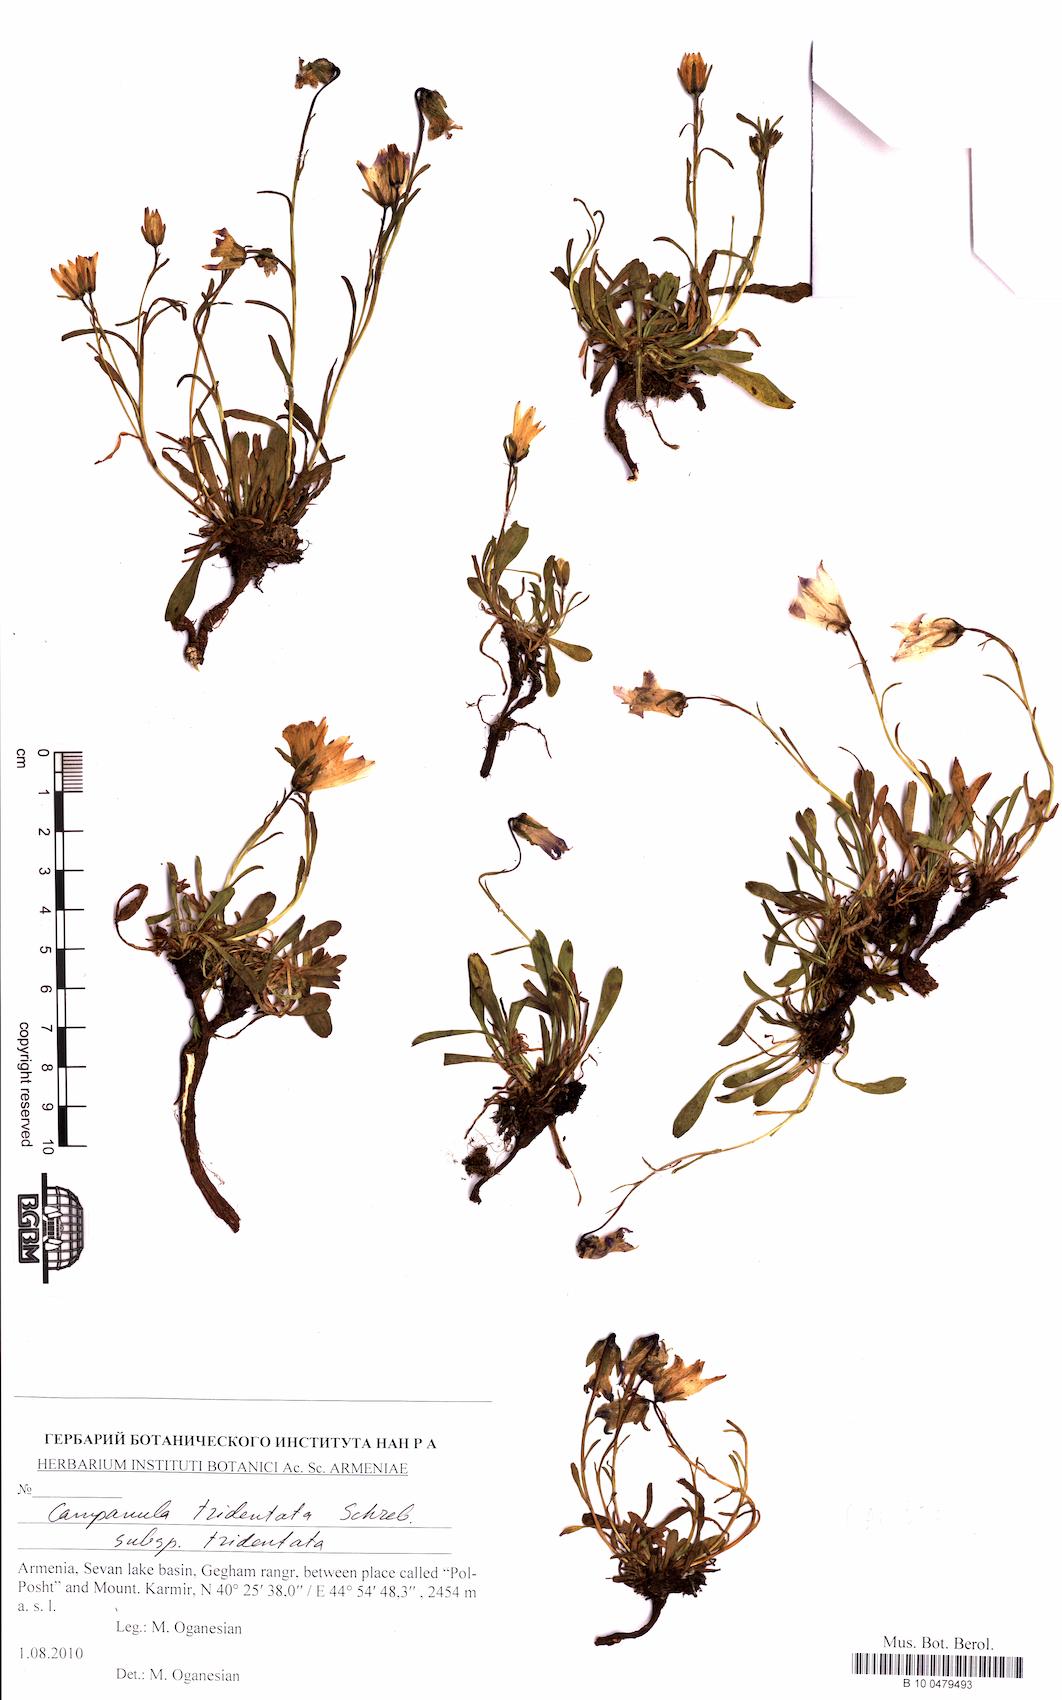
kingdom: Plantae
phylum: Tracheophyta
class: Magnoliopsida
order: Asterales
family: Campanulaceae
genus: Campanula
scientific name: Campanula glomerata
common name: Clustered bellflower
